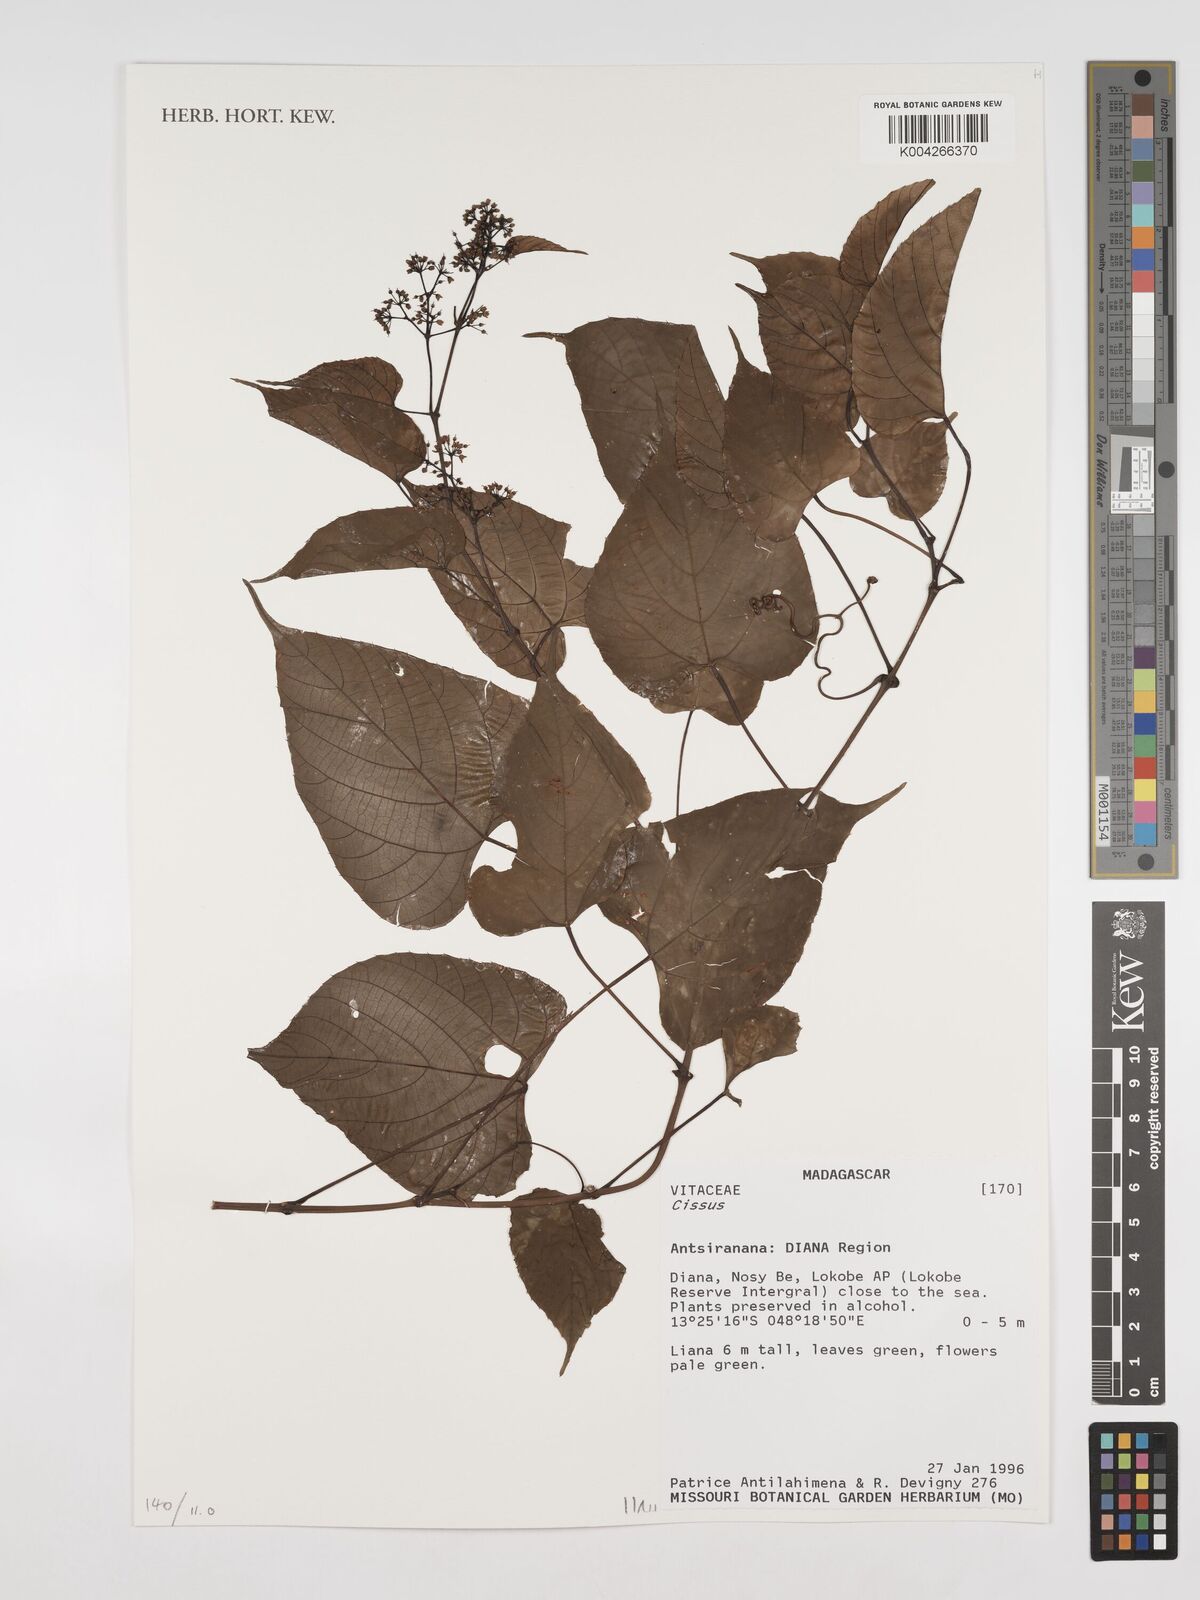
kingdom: Plantae
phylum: Tracheophyta
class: Magnoliopsida
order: Vitales
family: Vitaceae
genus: Cissus
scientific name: Cissus
